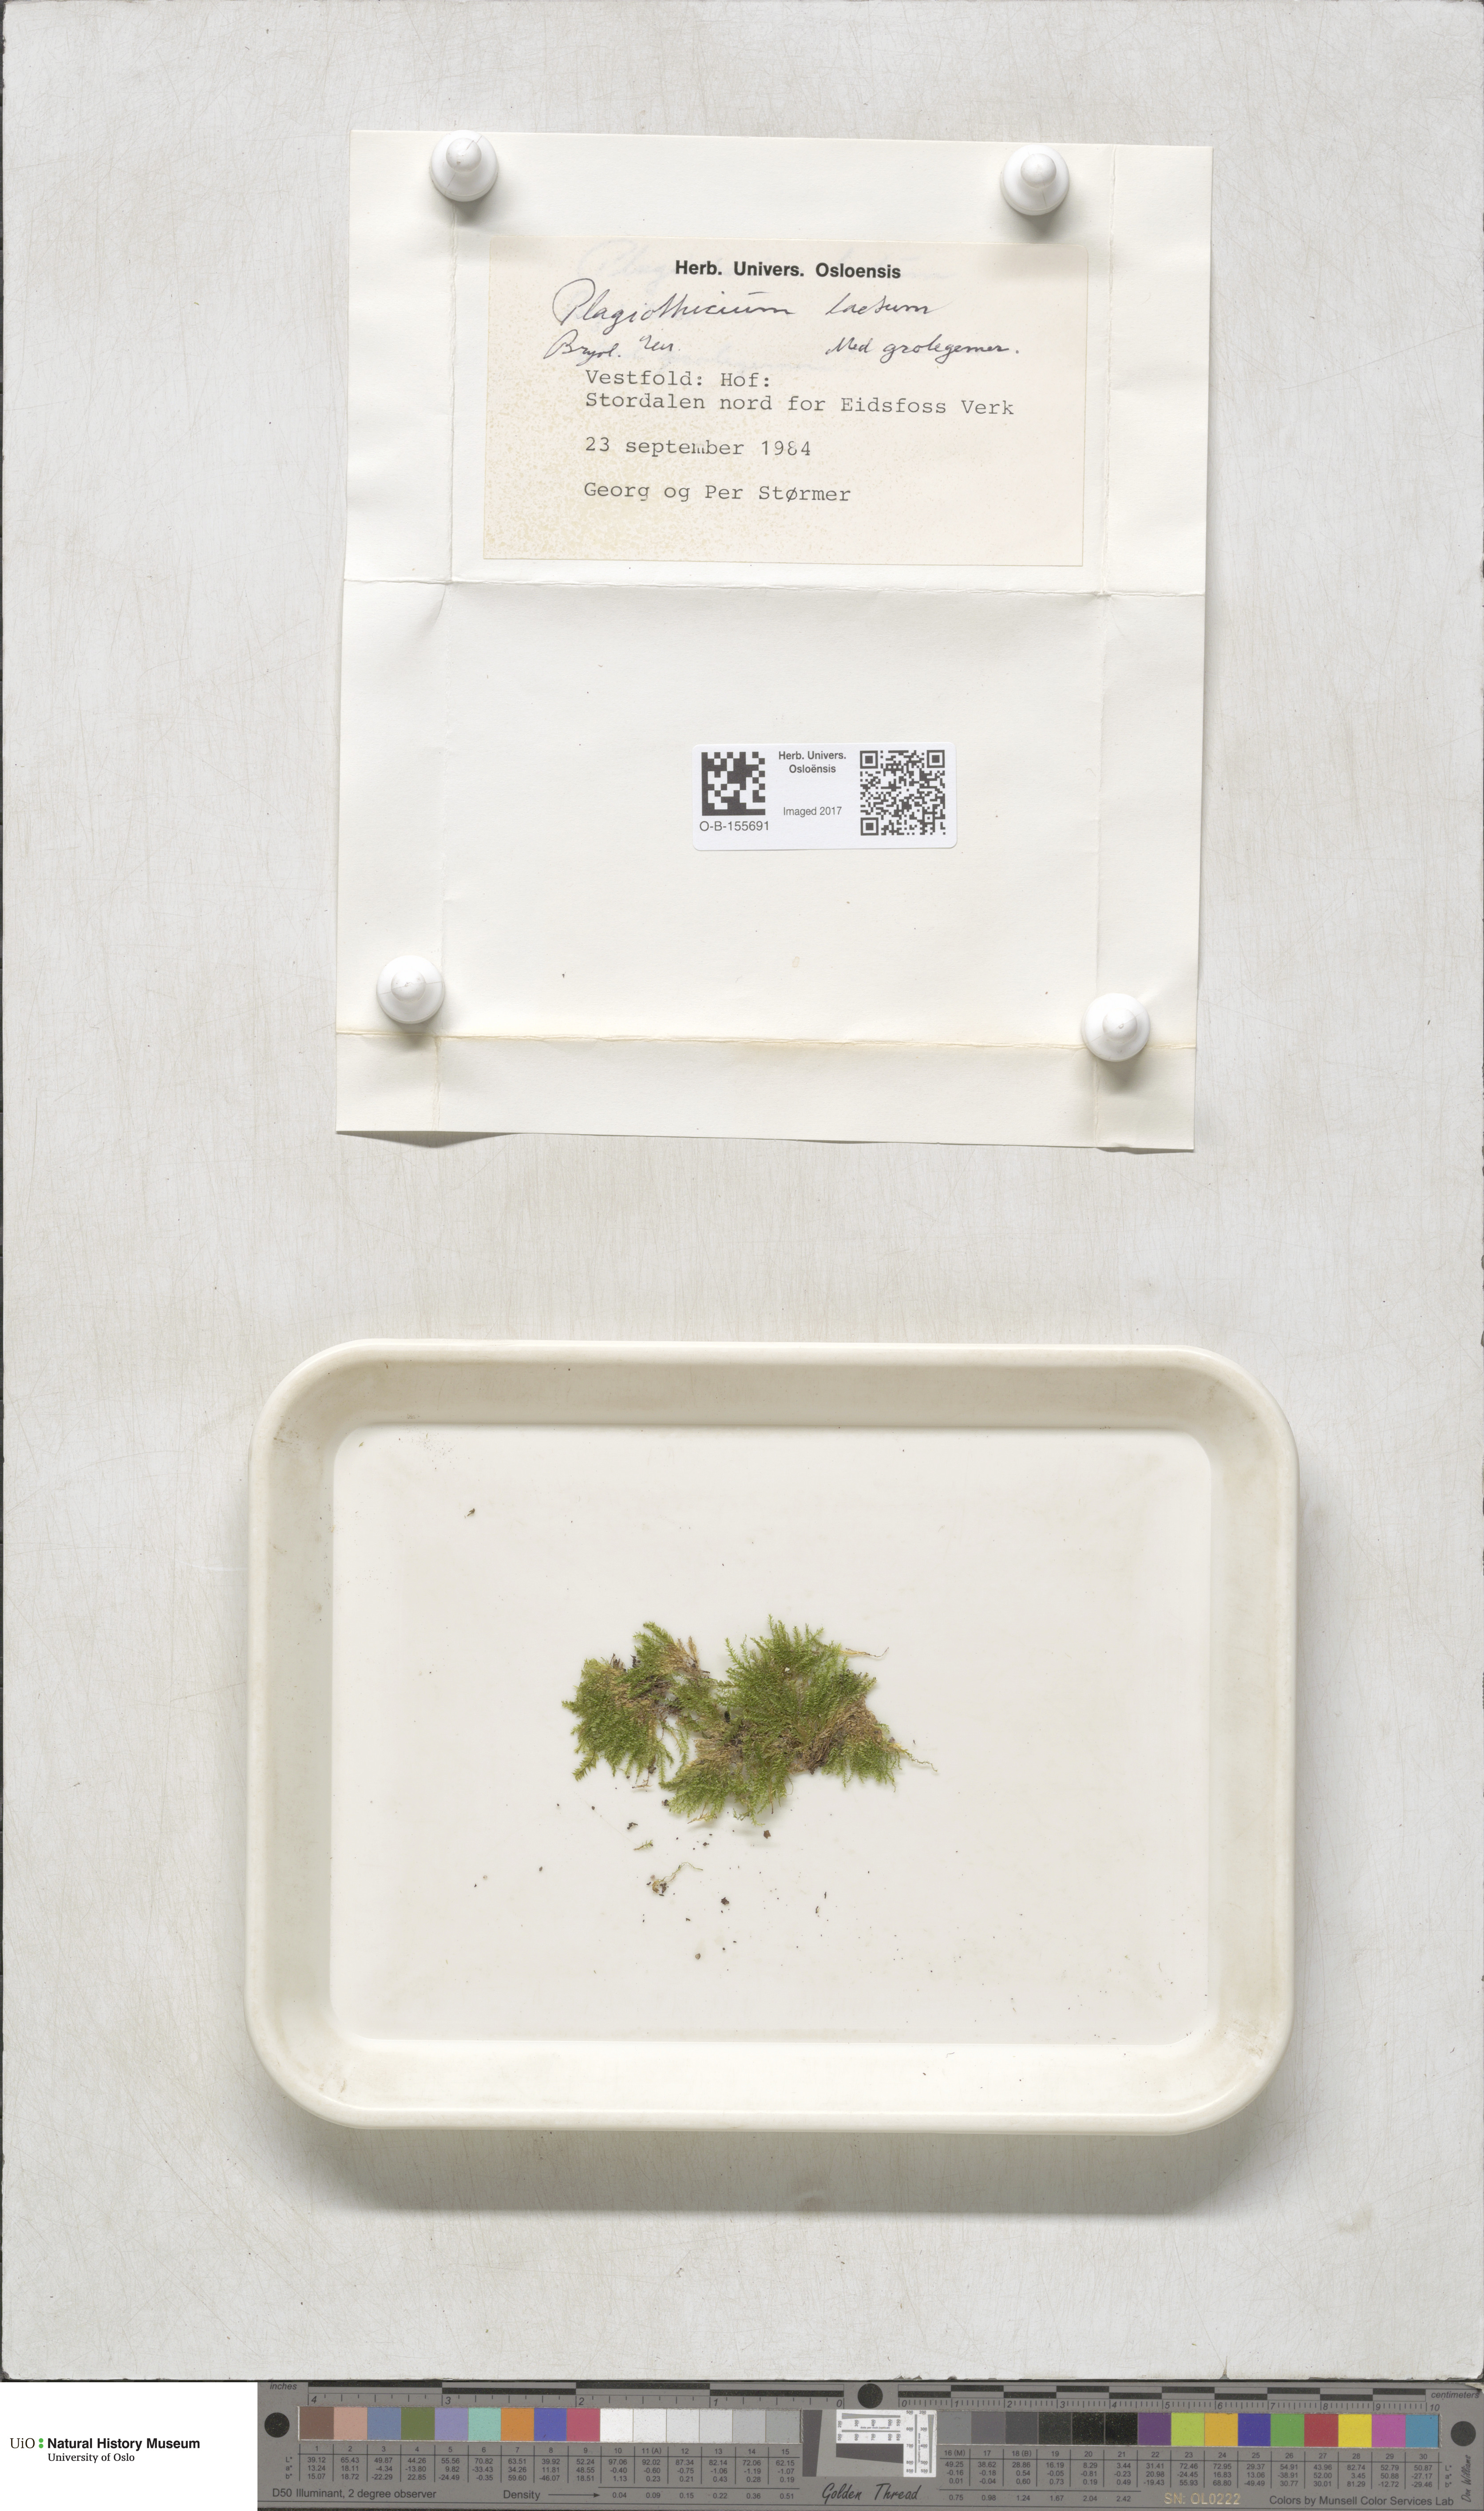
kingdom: Plantae
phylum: Bryophyta
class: Bryopsida
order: Hypnales
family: Plagiotheciaceae
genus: Plagiothecium
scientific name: Plagiothecium laetum
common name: Bright silk moss
